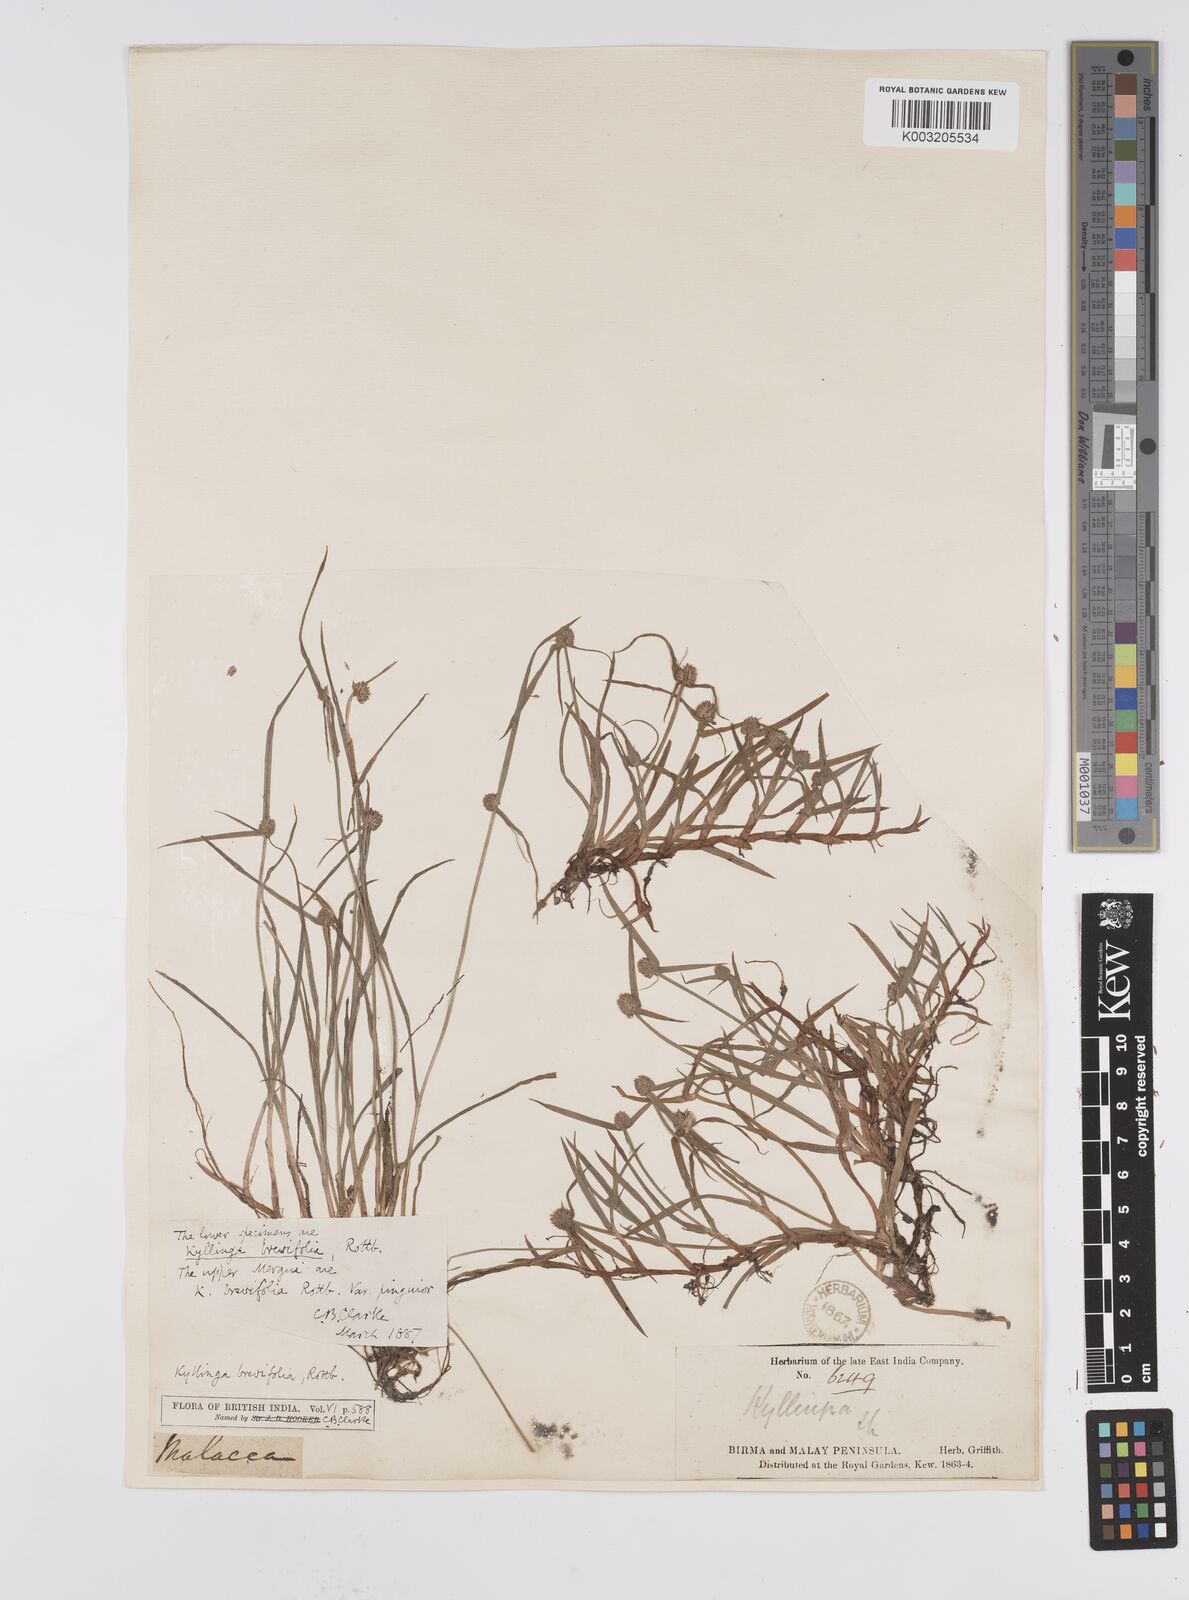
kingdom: Plantae
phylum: Tracheophyta
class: Liliopsida
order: Poales
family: Cyperaceae
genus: Cyperus
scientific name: Cyperus
